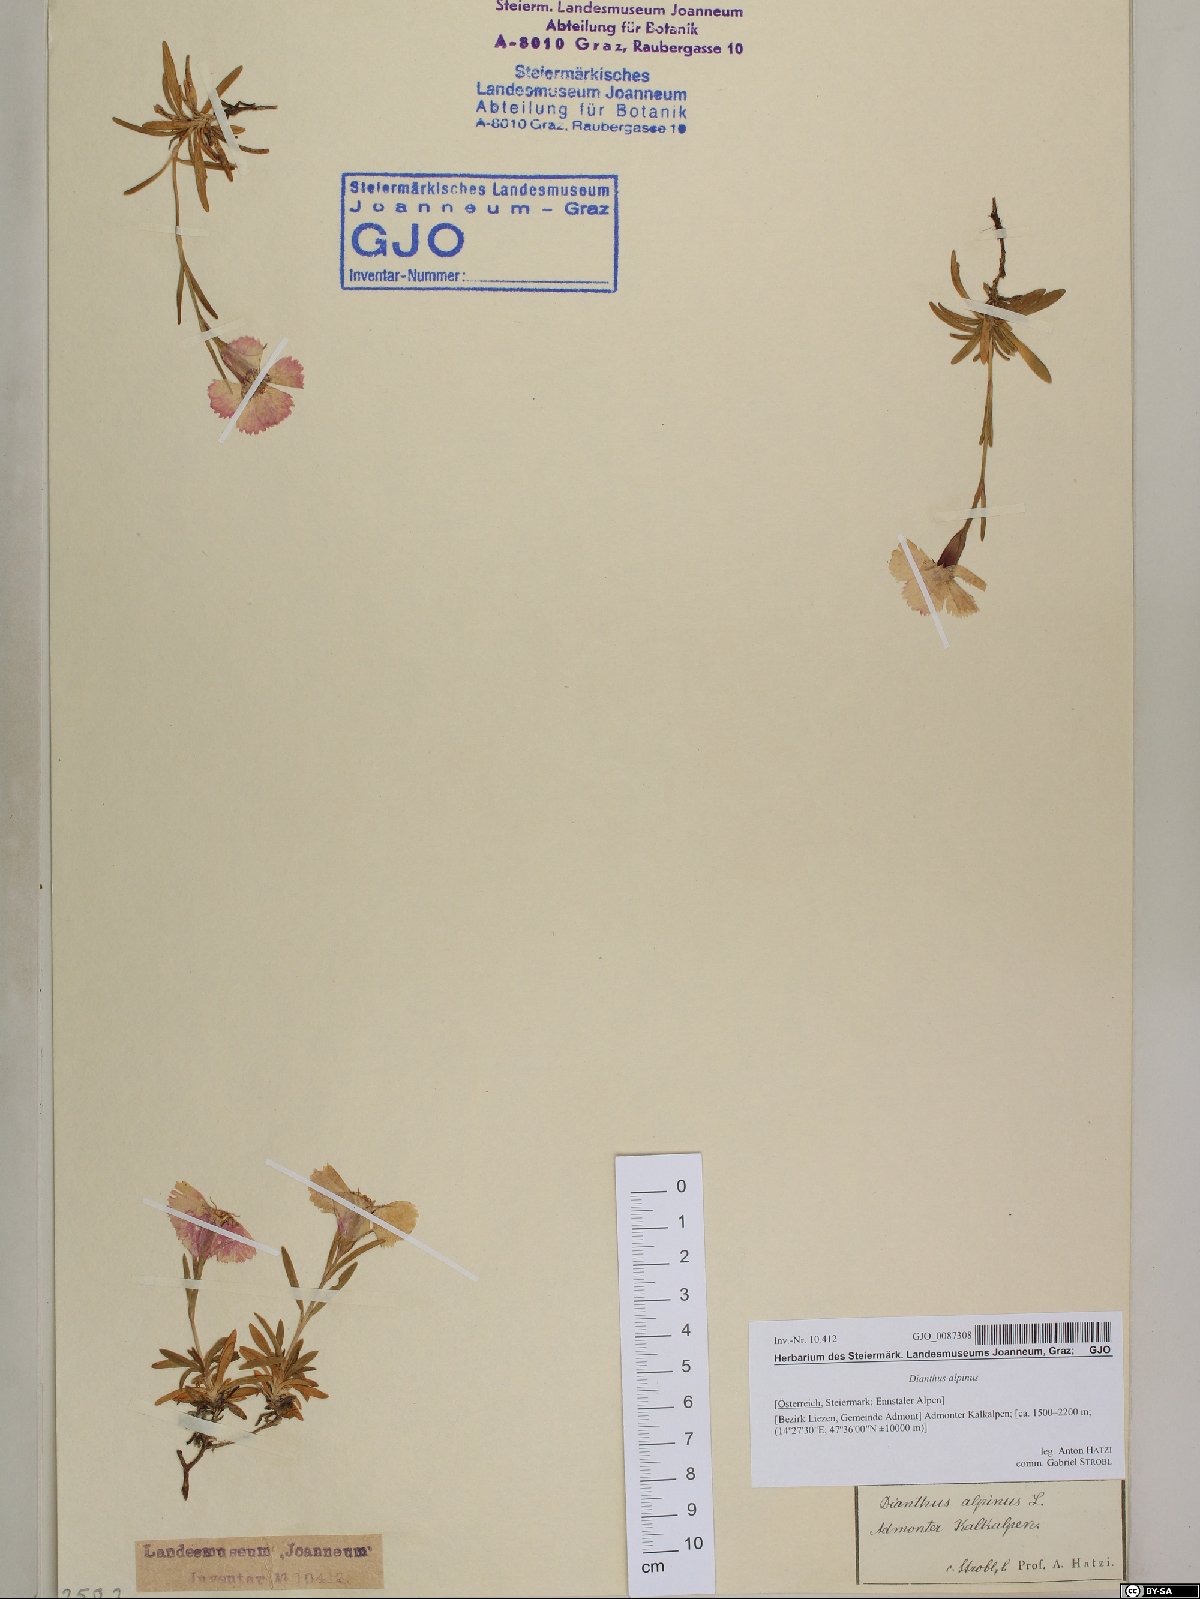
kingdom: Plantae
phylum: Tracheophyta
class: Magnoliopsida
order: Caryophyllales
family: Caryophyllaceae
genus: Dianthus
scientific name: Dianthus alpinus
